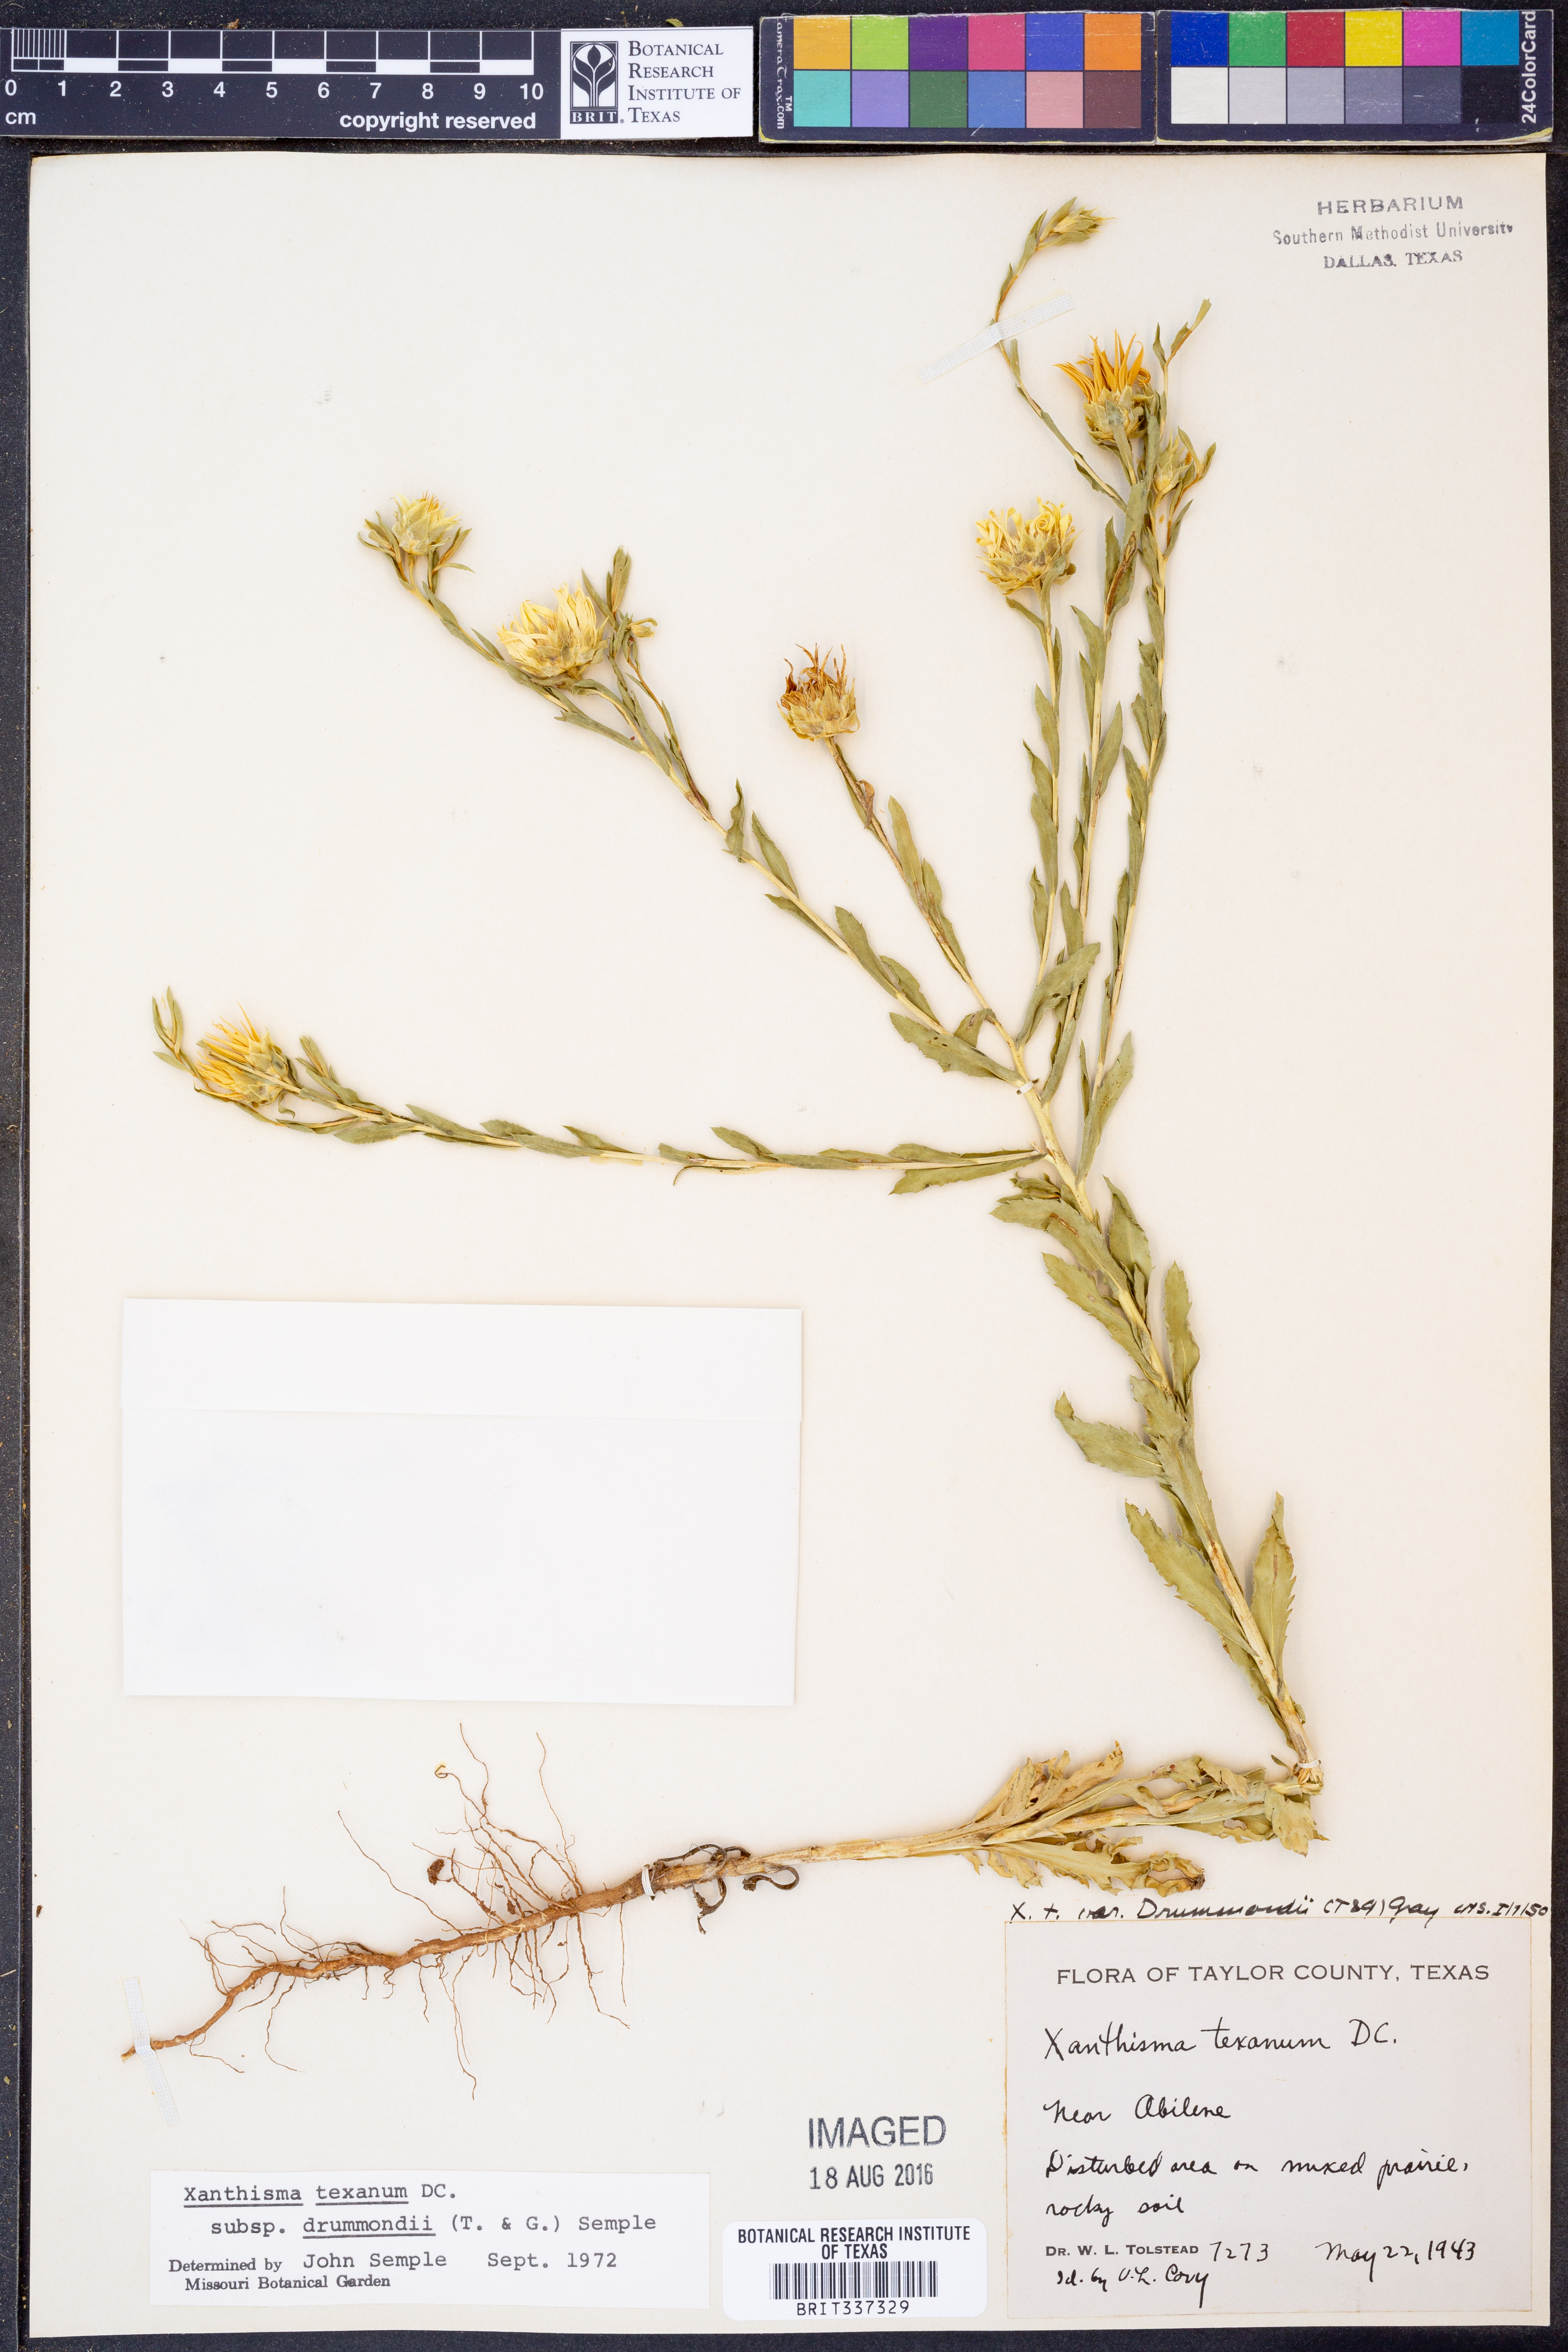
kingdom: Plantae
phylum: Tracheophyta
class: Magnoliopsida
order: Asterales
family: Asteraceae
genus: Xanthisma
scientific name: Xanthisma texanum
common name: Texas sleepy daisy
